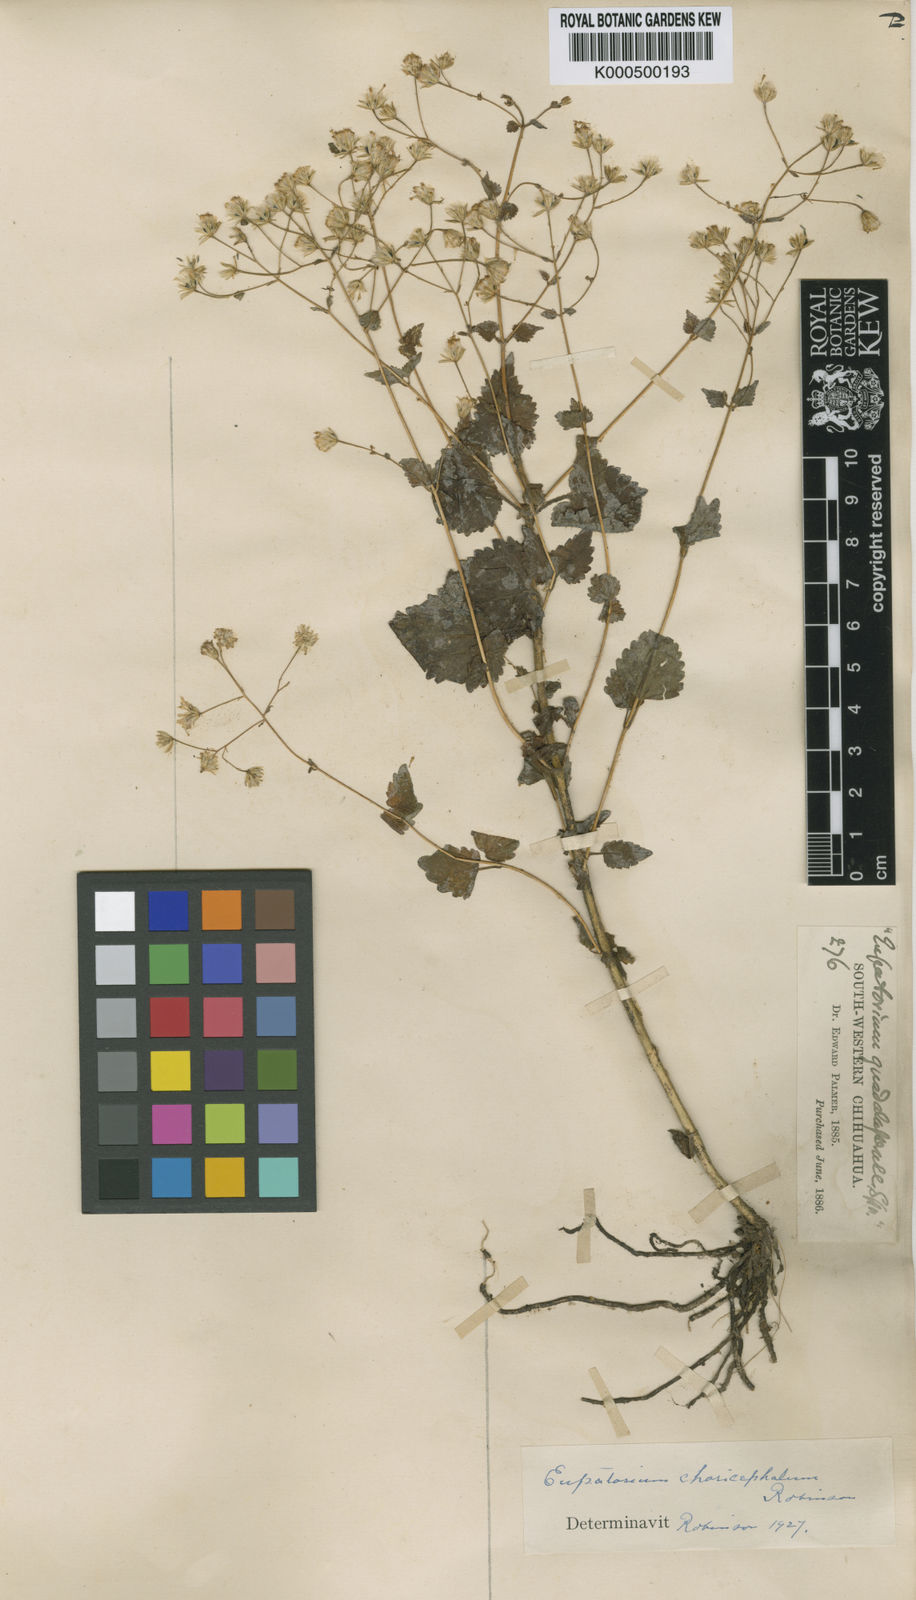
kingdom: Plantae
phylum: Tracheophyta
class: Magnoliopsida
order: Asterales
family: Asteraceae
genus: Ageratina
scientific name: Ageratina choricephala
